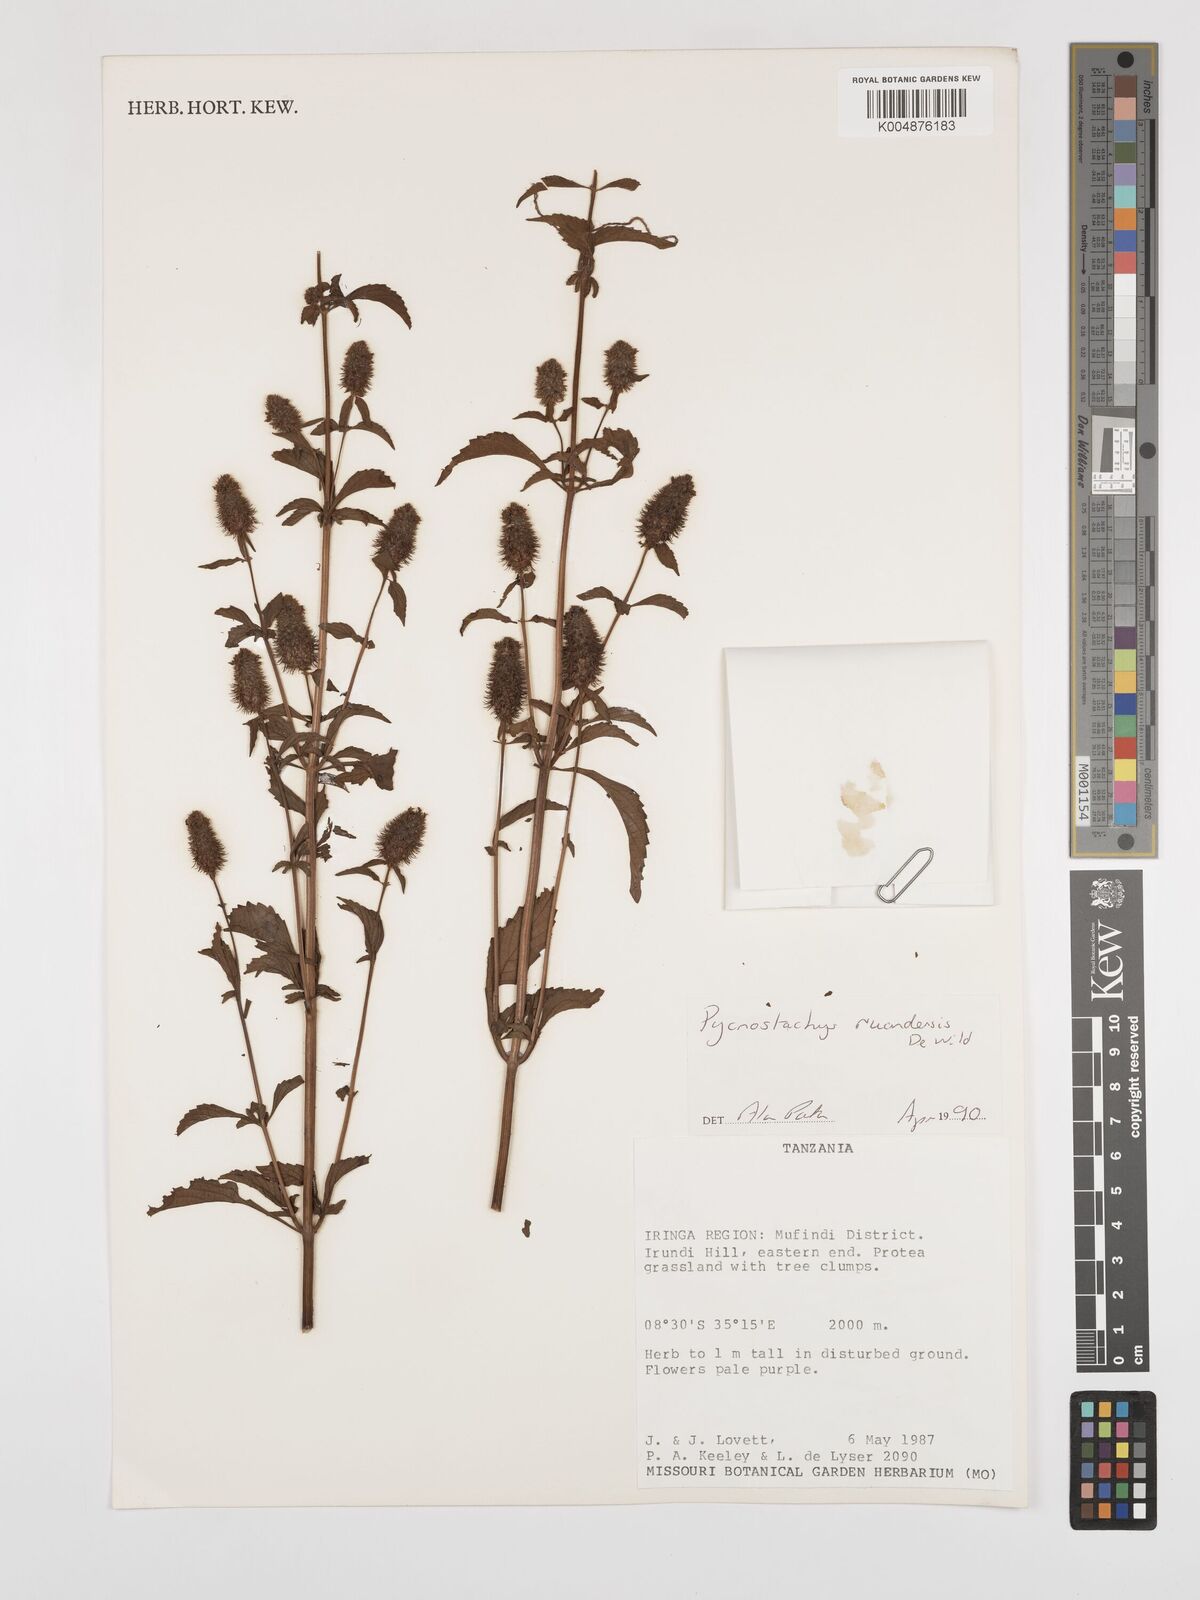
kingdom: Plantae
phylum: Tracheophyta
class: Magnoliopsida
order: Lamiales
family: Lamiaceae
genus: Coleus
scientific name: Coleus ruandensis
